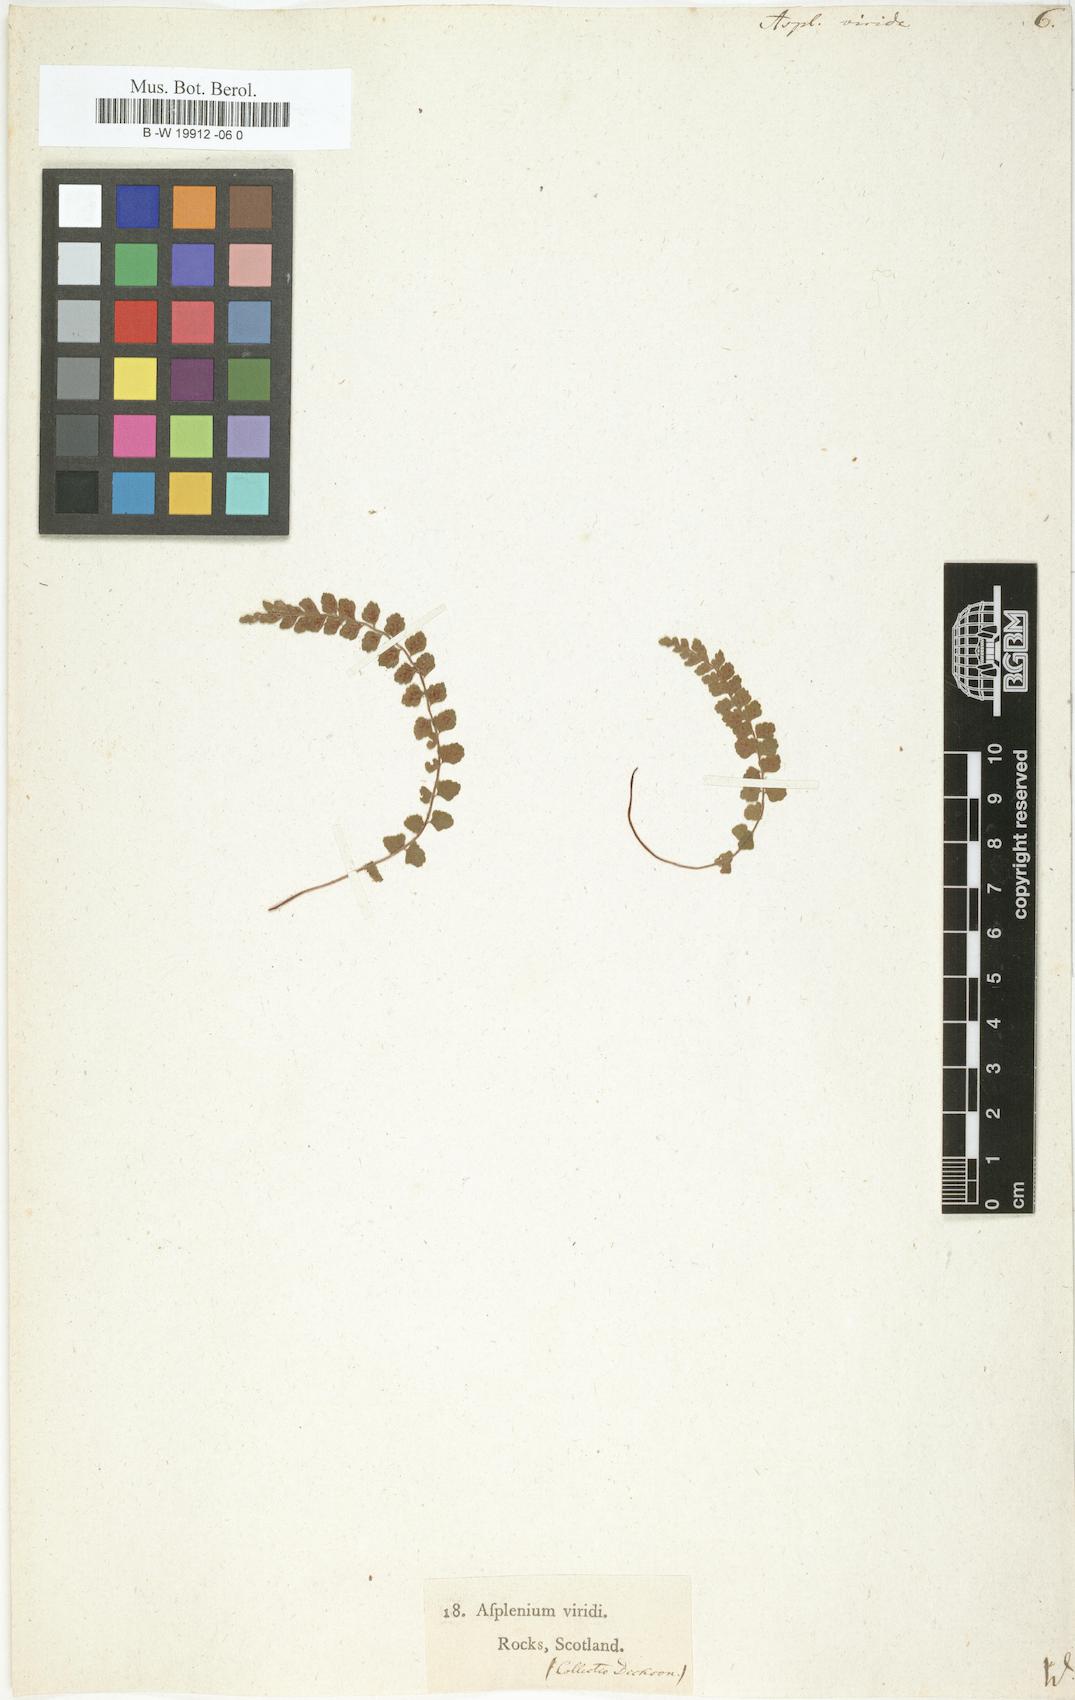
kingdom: Plantae
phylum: Tracheophyta
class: Polypodiopsida
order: Polypodiales
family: Aspleniaceae
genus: Asplenium
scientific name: Asplenium viride
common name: Green spleenwort
